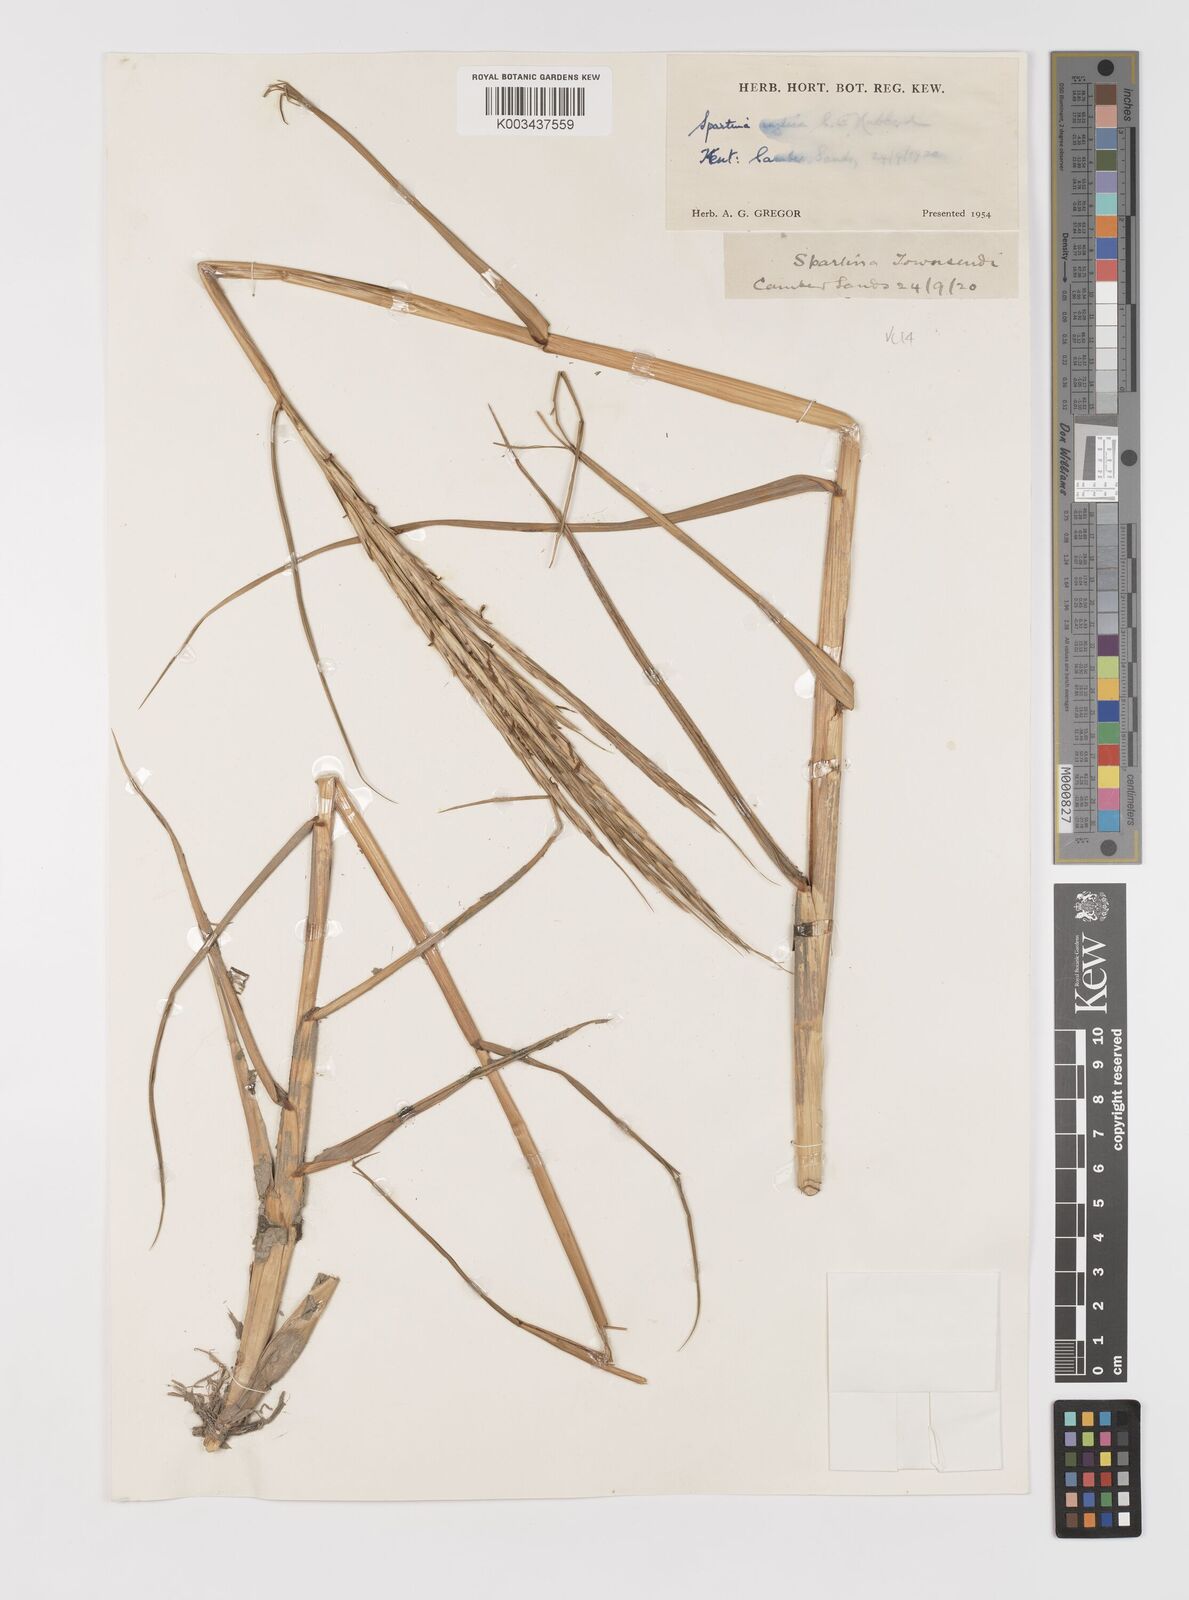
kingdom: Plantae
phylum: Tracheophyta
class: Liliopsida
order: Poales
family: Poaceae
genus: Sporobolus
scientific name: Sporobolus anglicus
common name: English cordgrass
